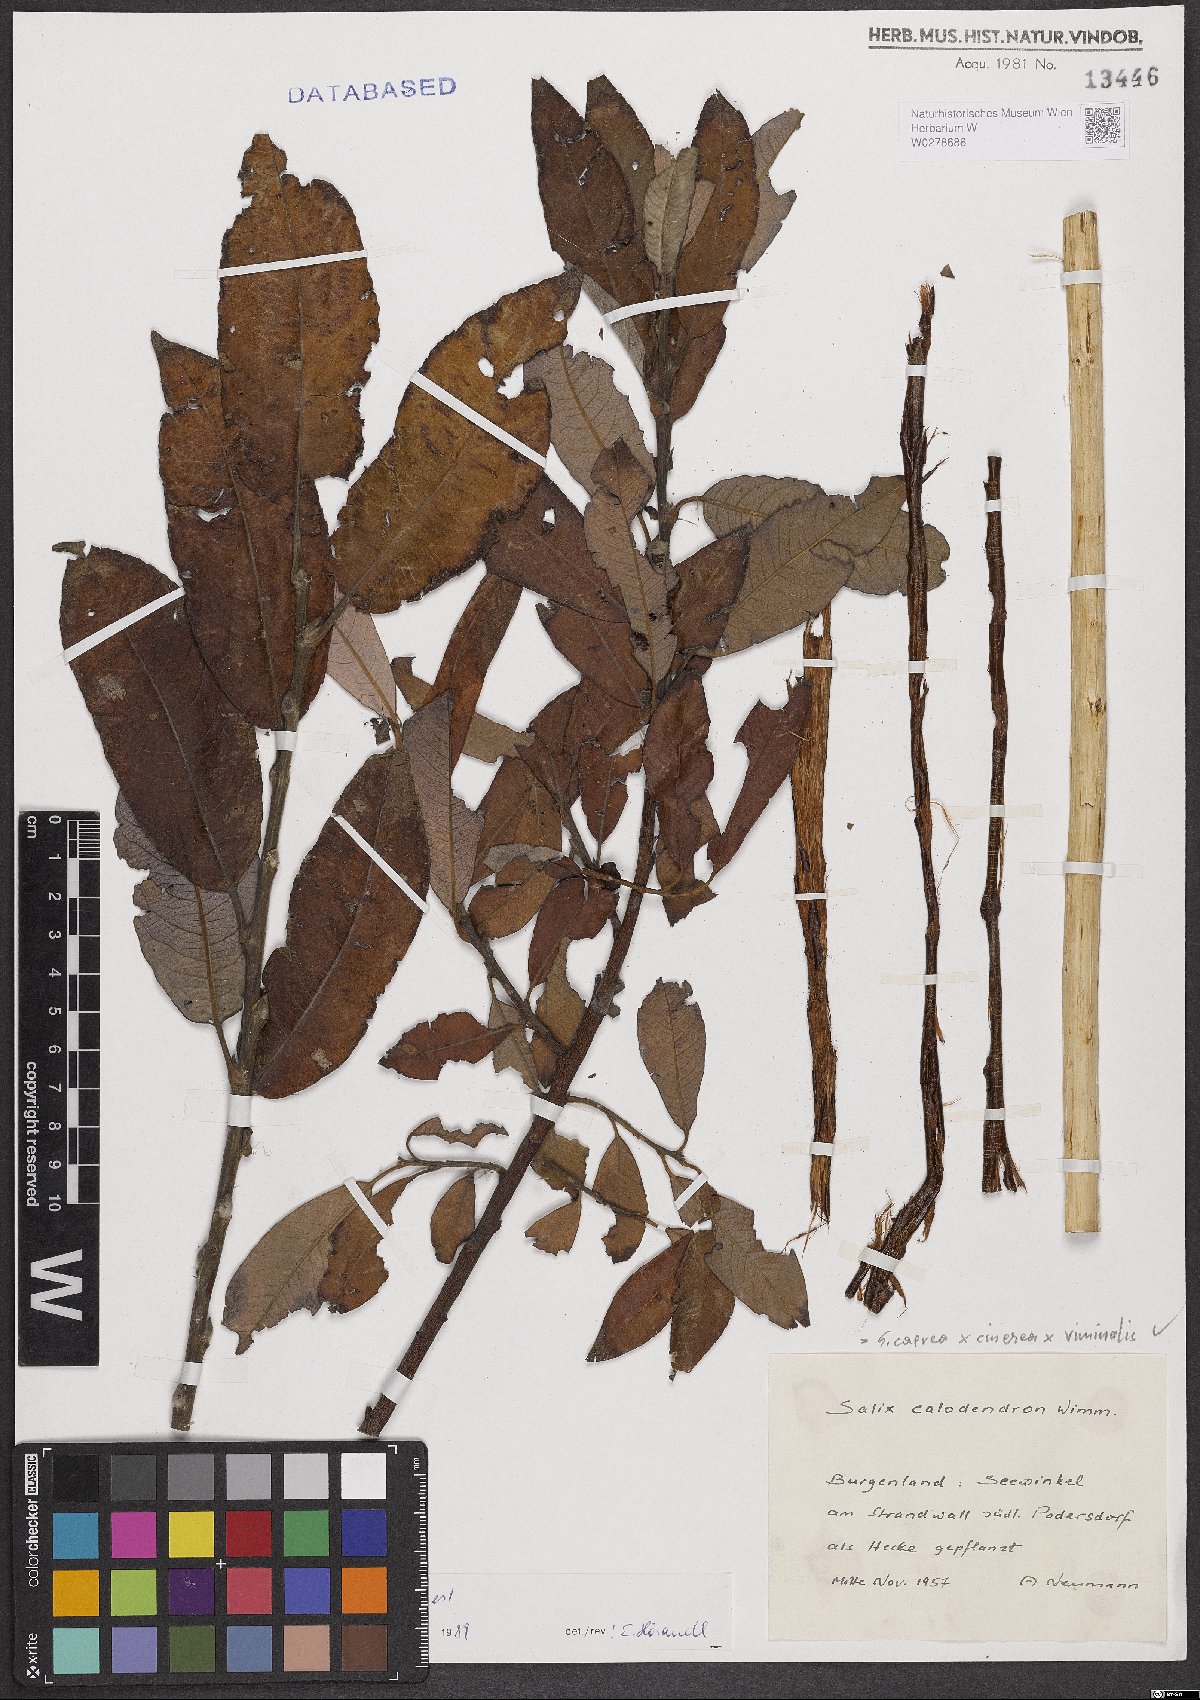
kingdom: Plantae
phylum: Tracheophyta
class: Magnoliopsida
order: Malpighiales
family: Salicaceae
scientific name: Salicaceae
